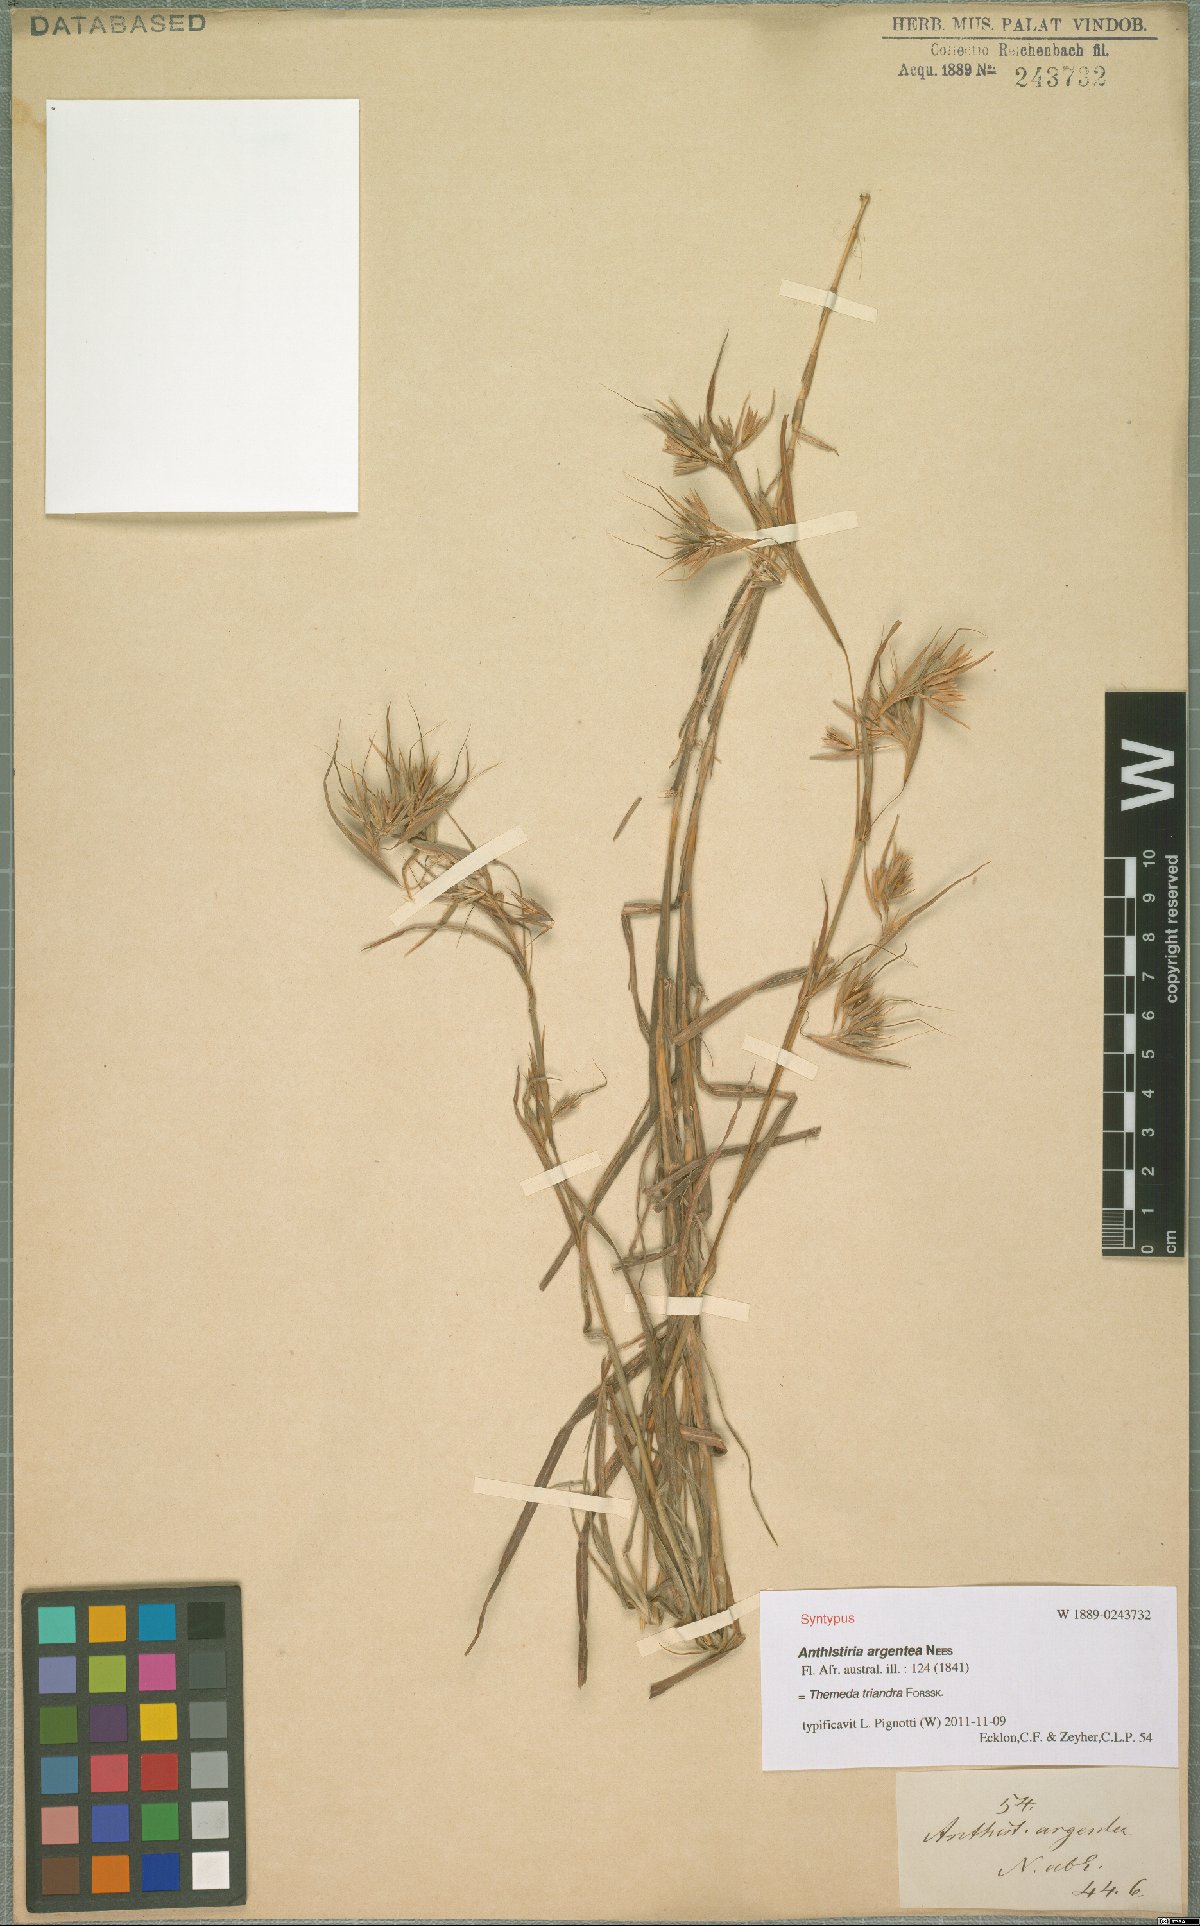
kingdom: Plantae
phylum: Tracheophyta
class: Liliopsida
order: Poales
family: Poaceae
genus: Themeda
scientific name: Themeda triandra
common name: Kangaroo grass
